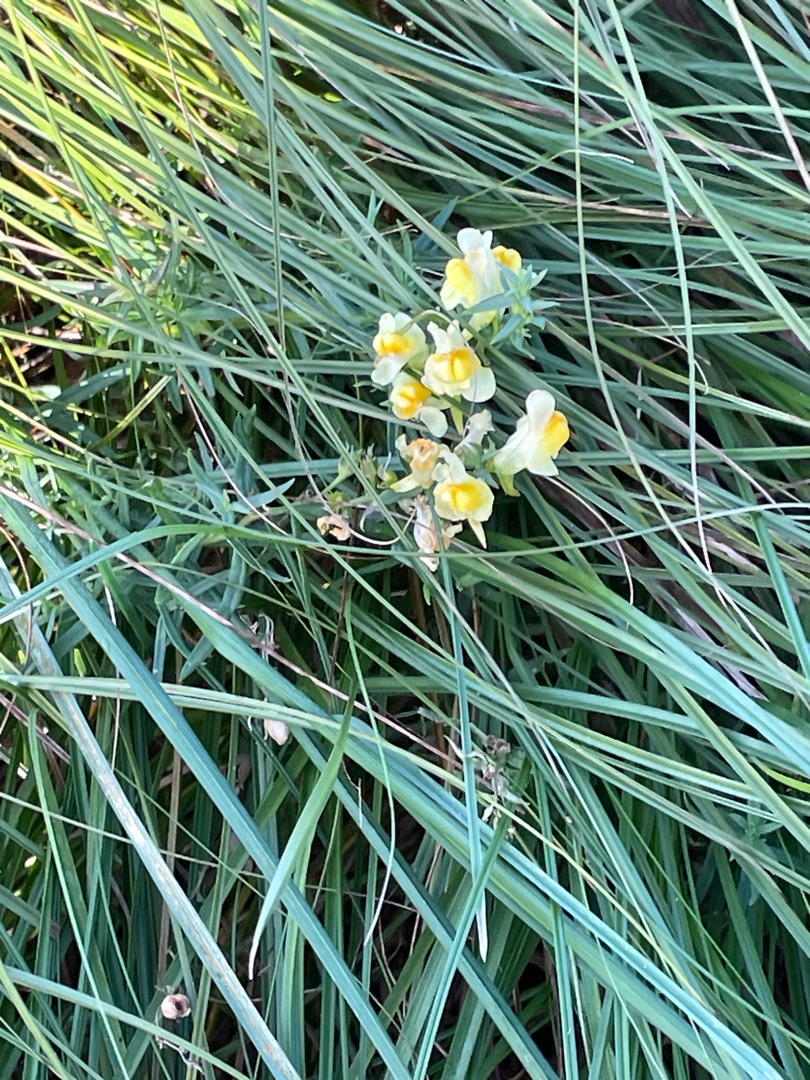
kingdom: Plantae
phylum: Tracheophyta
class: Magnoliopsida
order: Lamiales
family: Plantaginaceae
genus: Linaria
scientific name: Linaria vulgaris
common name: Almindelig torskemund
